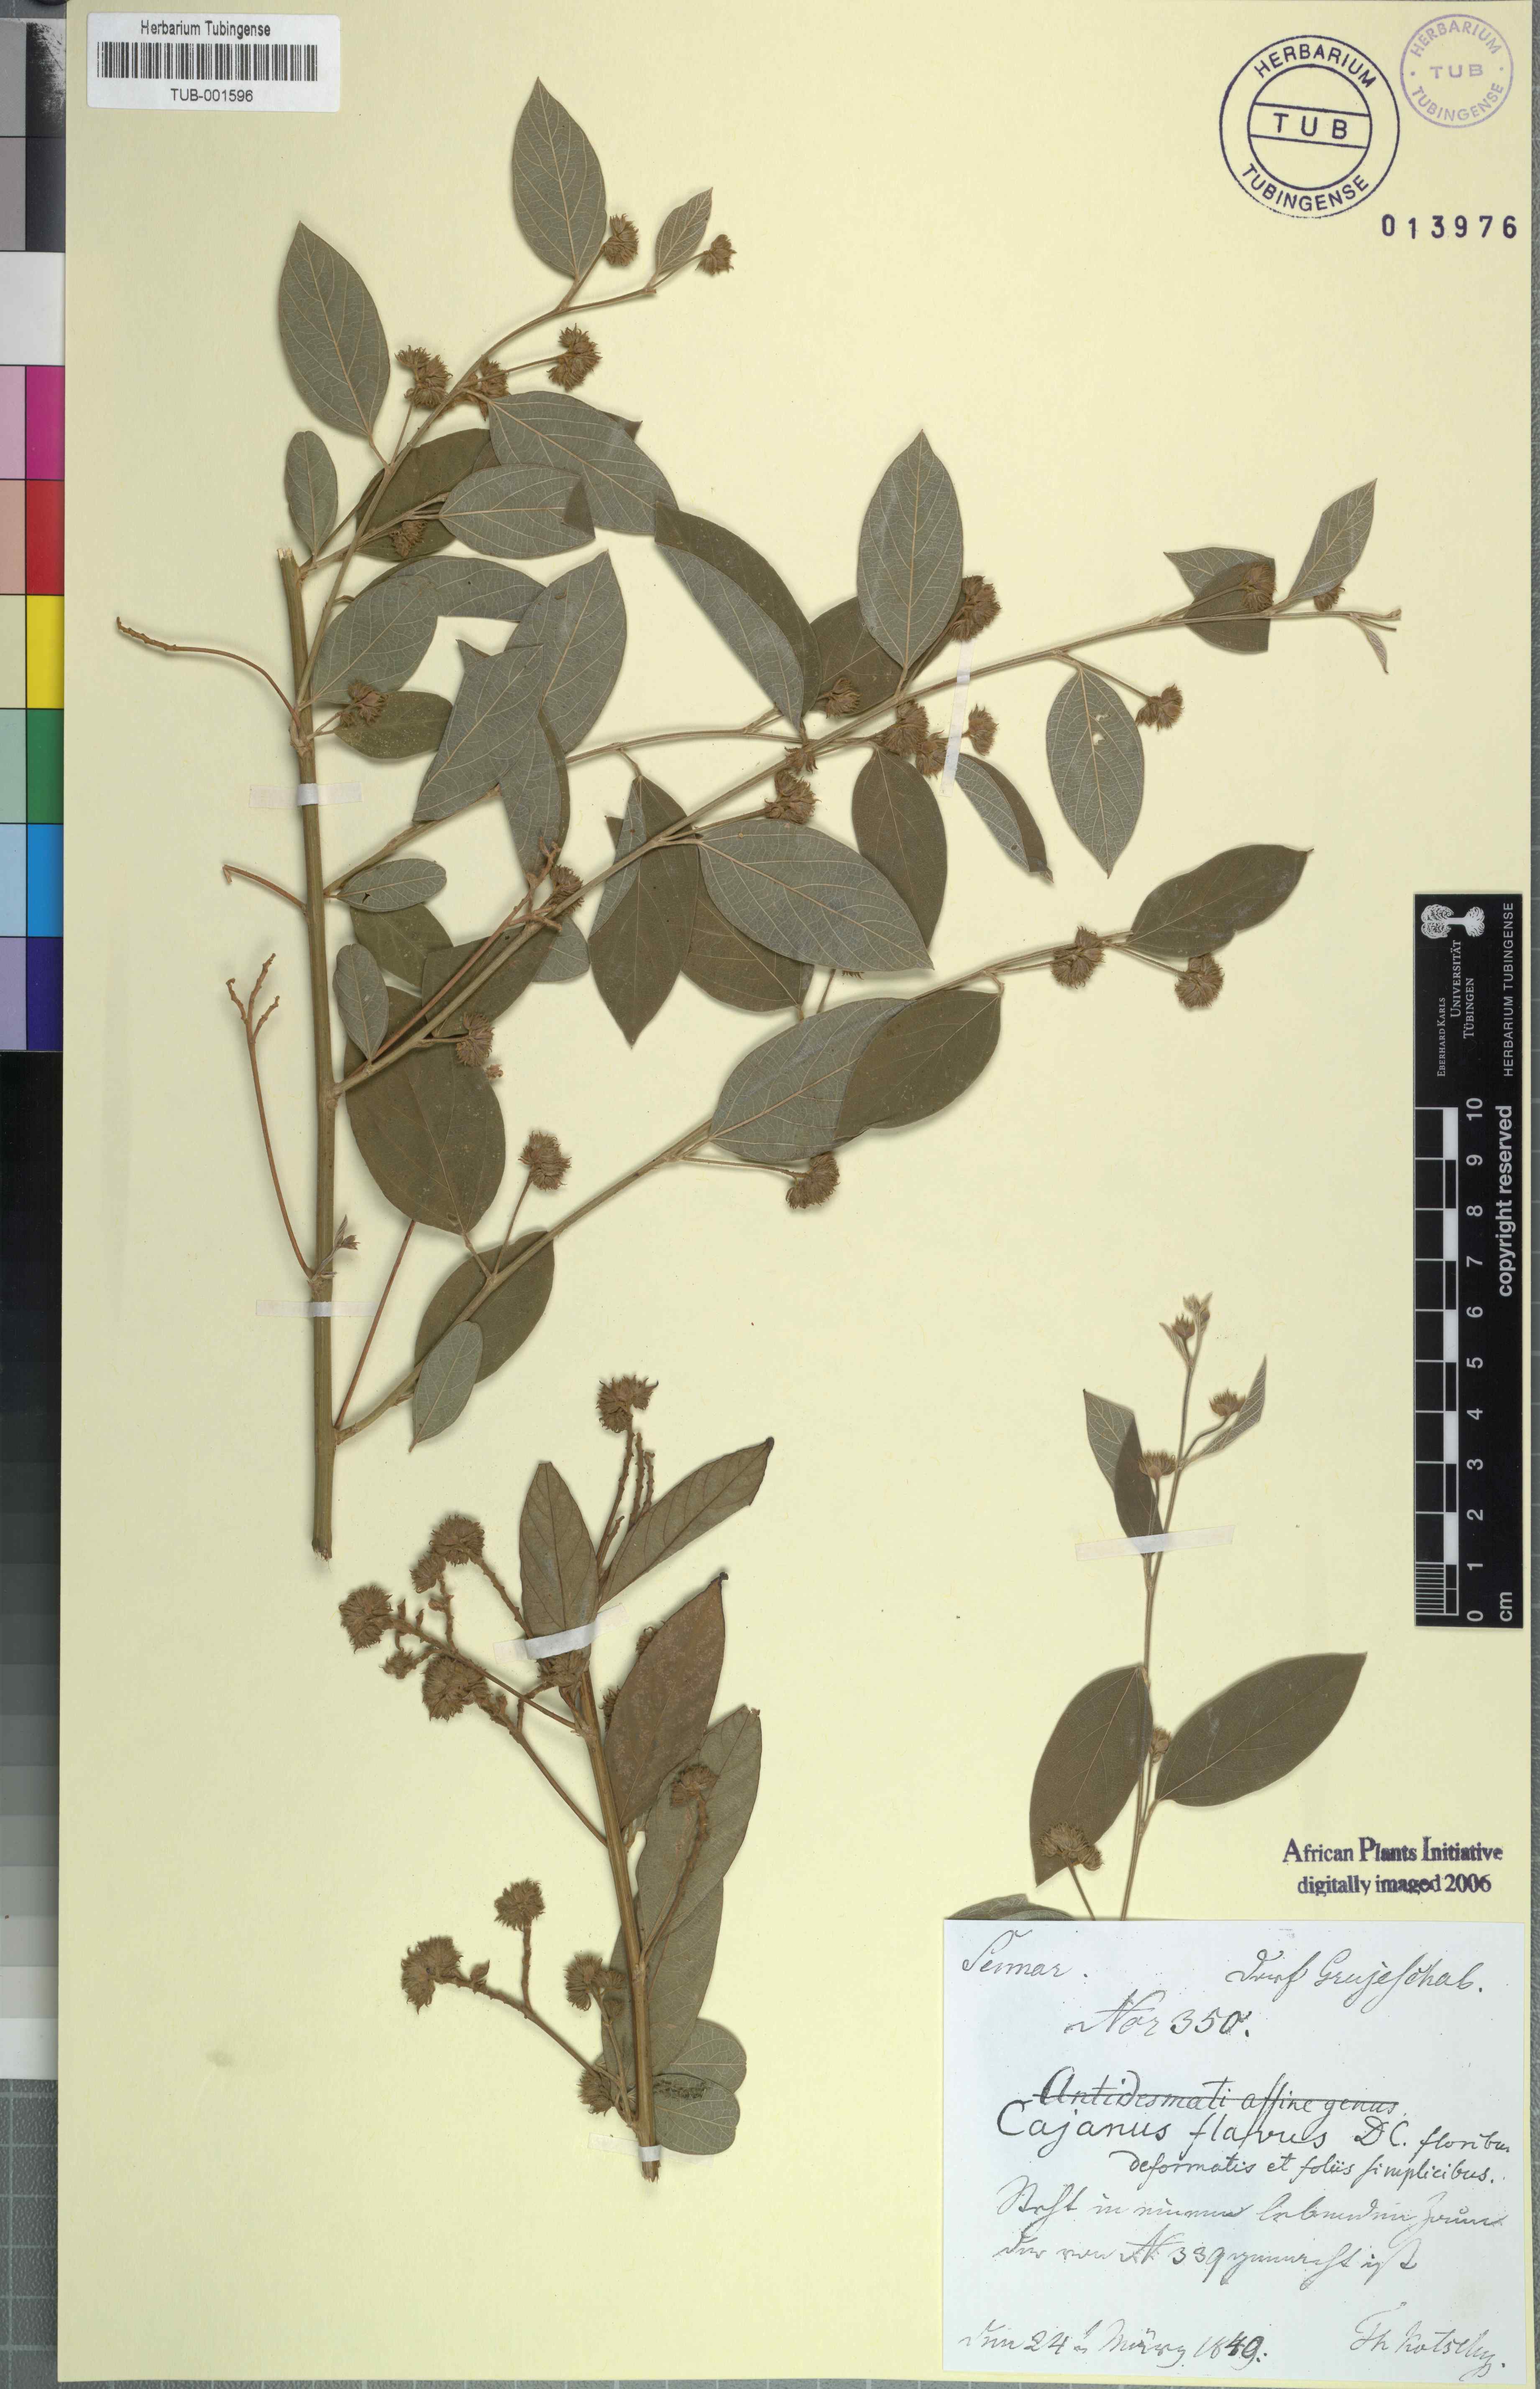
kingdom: Plantae
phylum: Tracheophyta
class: Magnoliopsida
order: Fabales
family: Fabaceae
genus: Cajanus
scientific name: Cajanus cajan
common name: Pigeonpea
